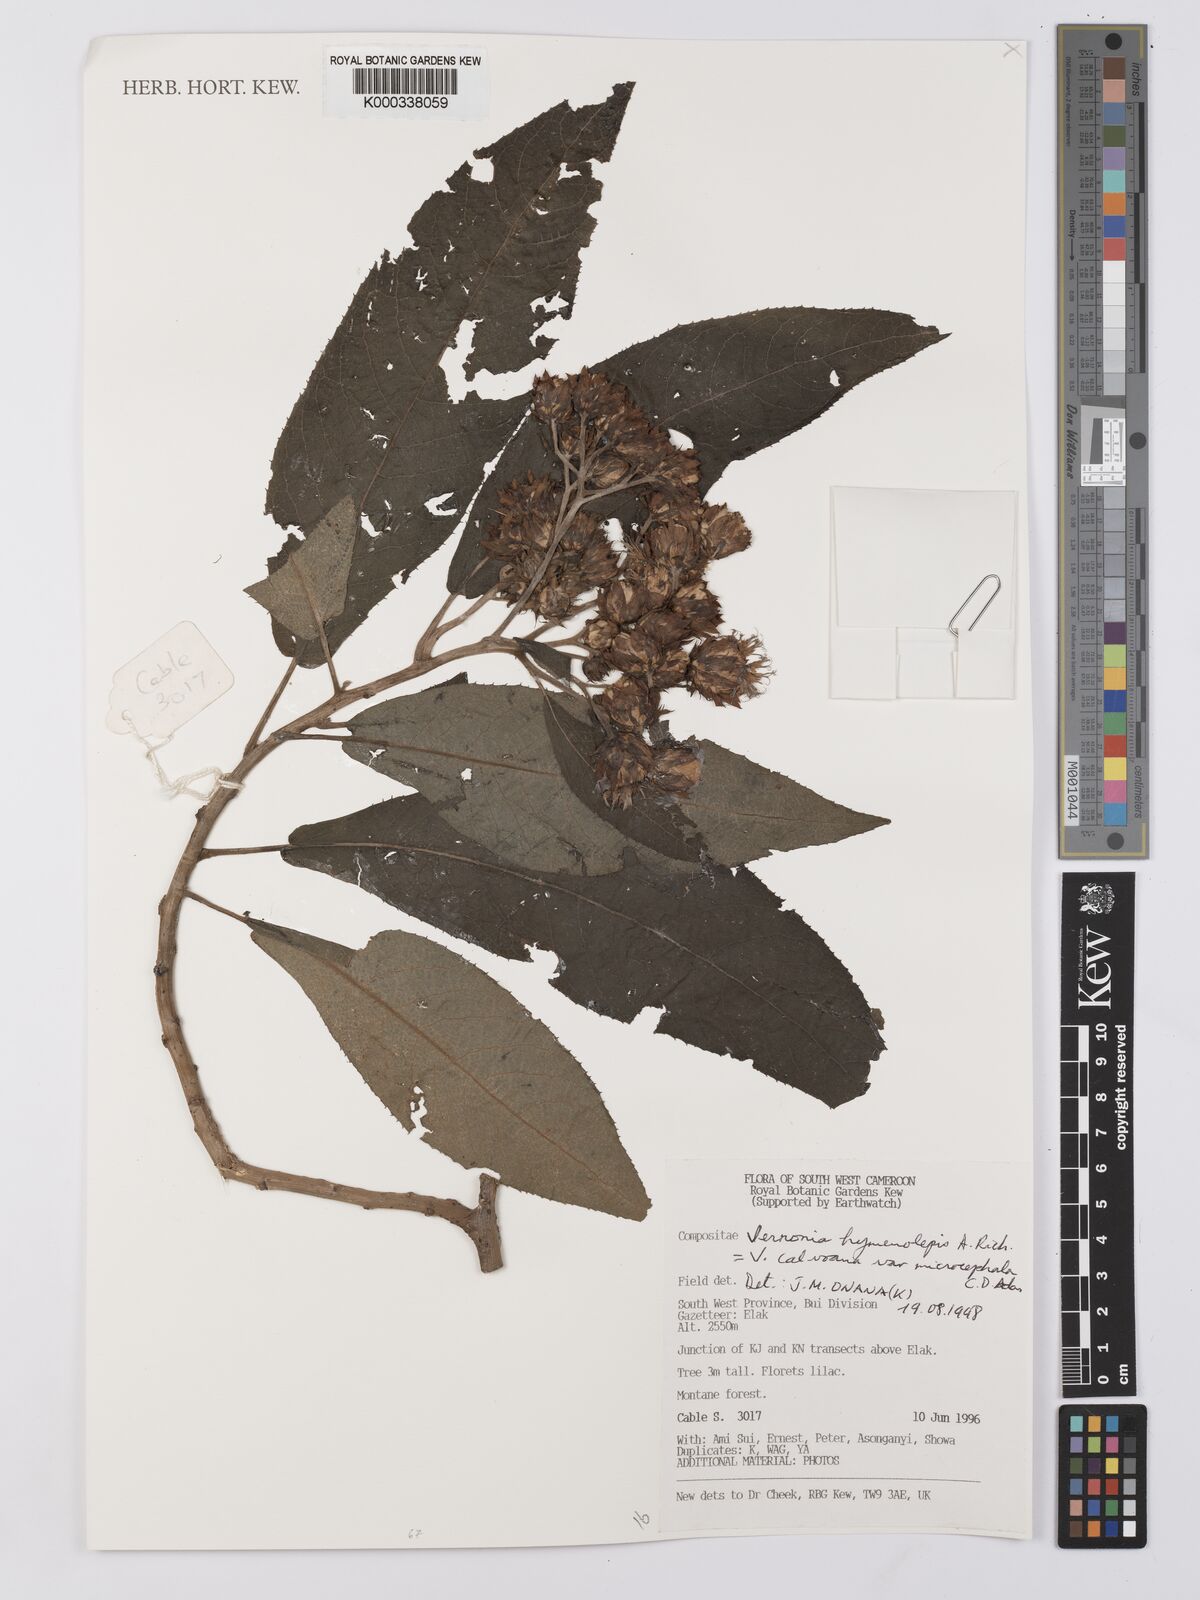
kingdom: Plantae
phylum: Tracheophyta
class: Magnoliopsida
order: Asterales
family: Asteraceae
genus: Baccharoides
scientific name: Baccharoides hymenolepis
